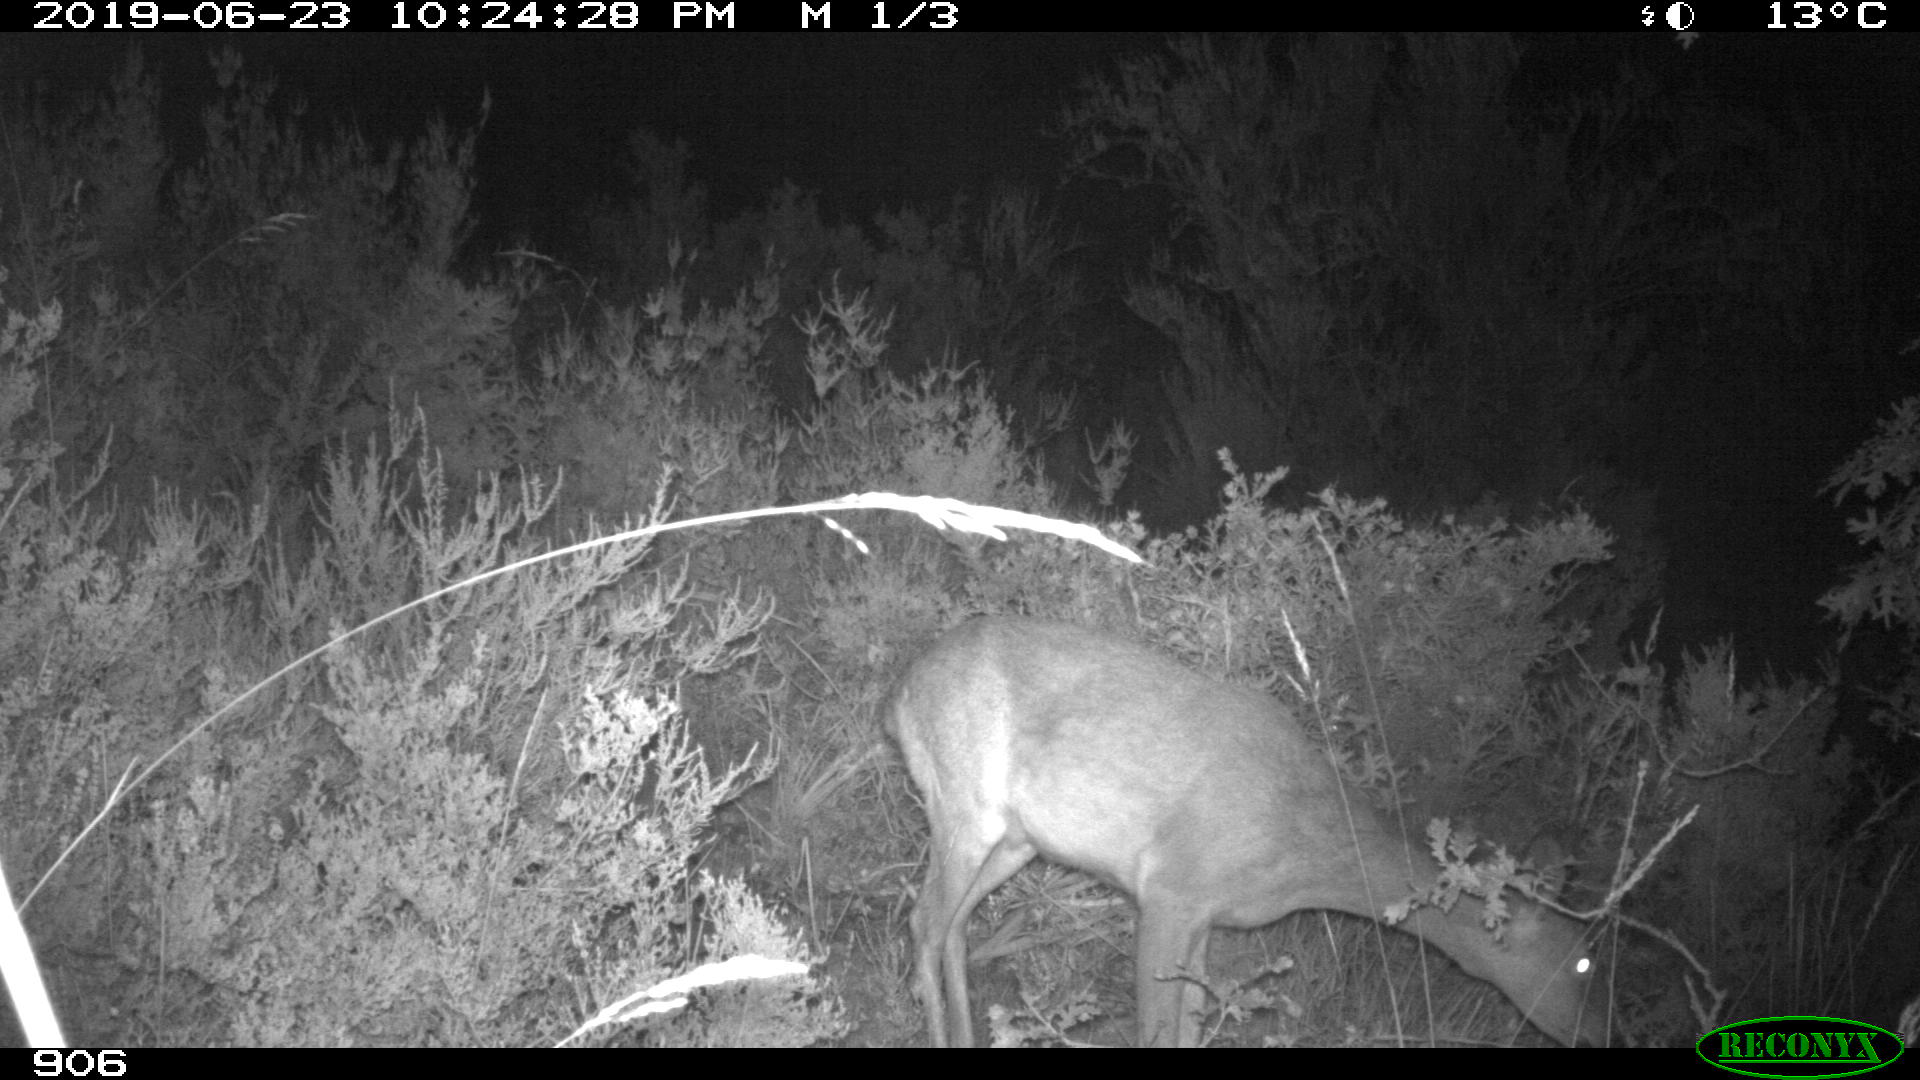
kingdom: Animalia
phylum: Chordata
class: Mammalia
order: Artiodactyla
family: Cervidae
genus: Capreolus
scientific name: Capreolus capreolus
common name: Western roe deer
